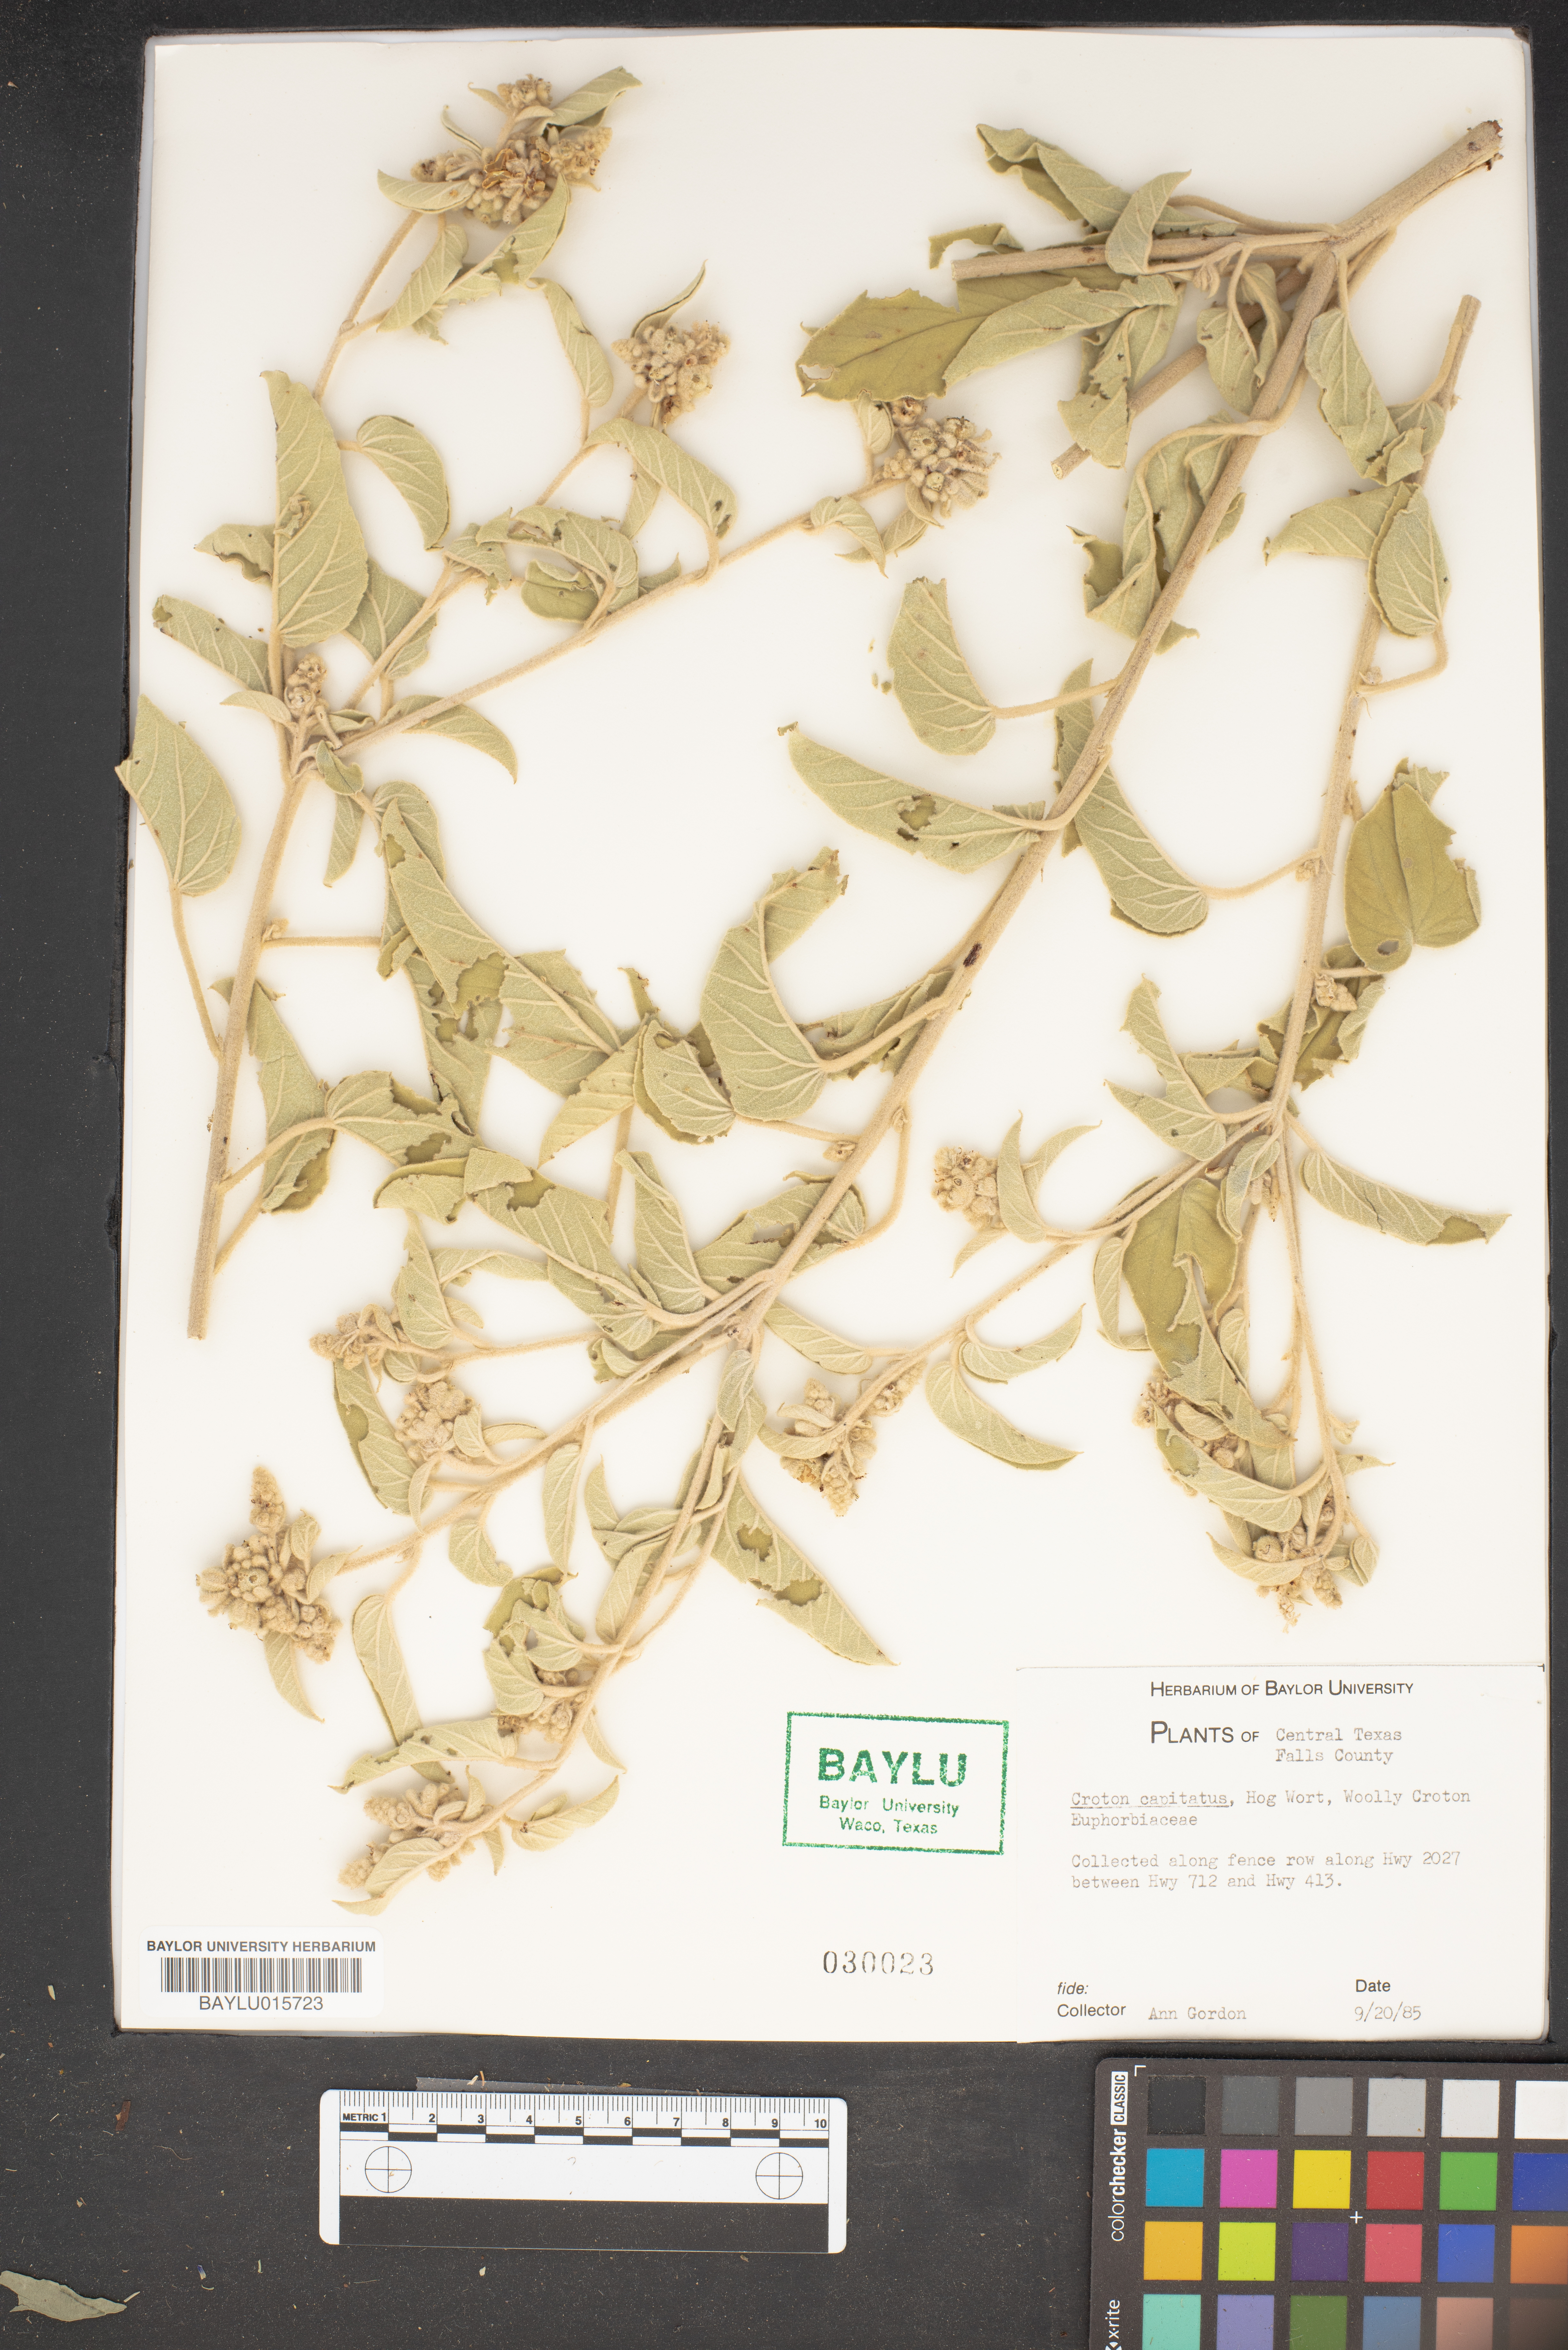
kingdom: Plantae
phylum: Tracheophyta
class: Magnoliopsida
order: Malpighiales
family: Euphorbiaceae
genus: Croton
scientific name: Croton capitatus
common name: Woolly croton
